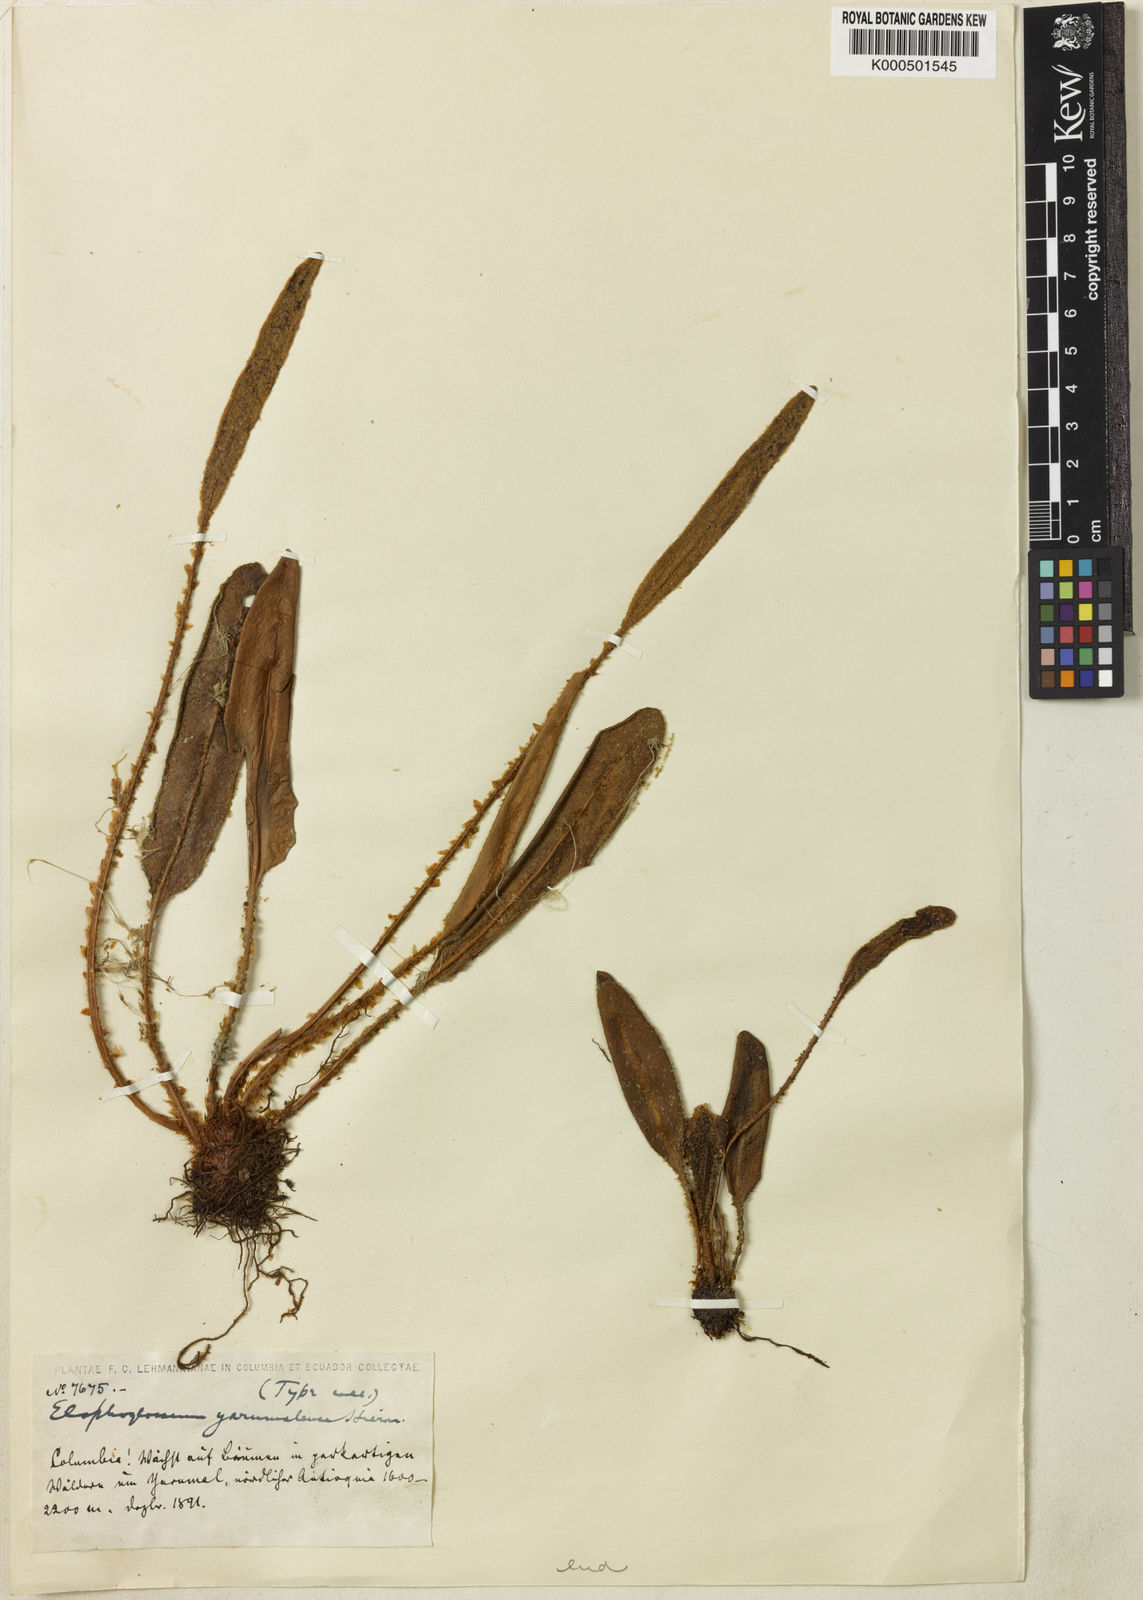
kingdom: Plantae
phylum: Tracheophyta
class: Polypodiopsida
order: Polypodiales
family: Dryopteridaceae
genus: Elaphoglossum
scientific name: Elaphoglossum lehmannianum
